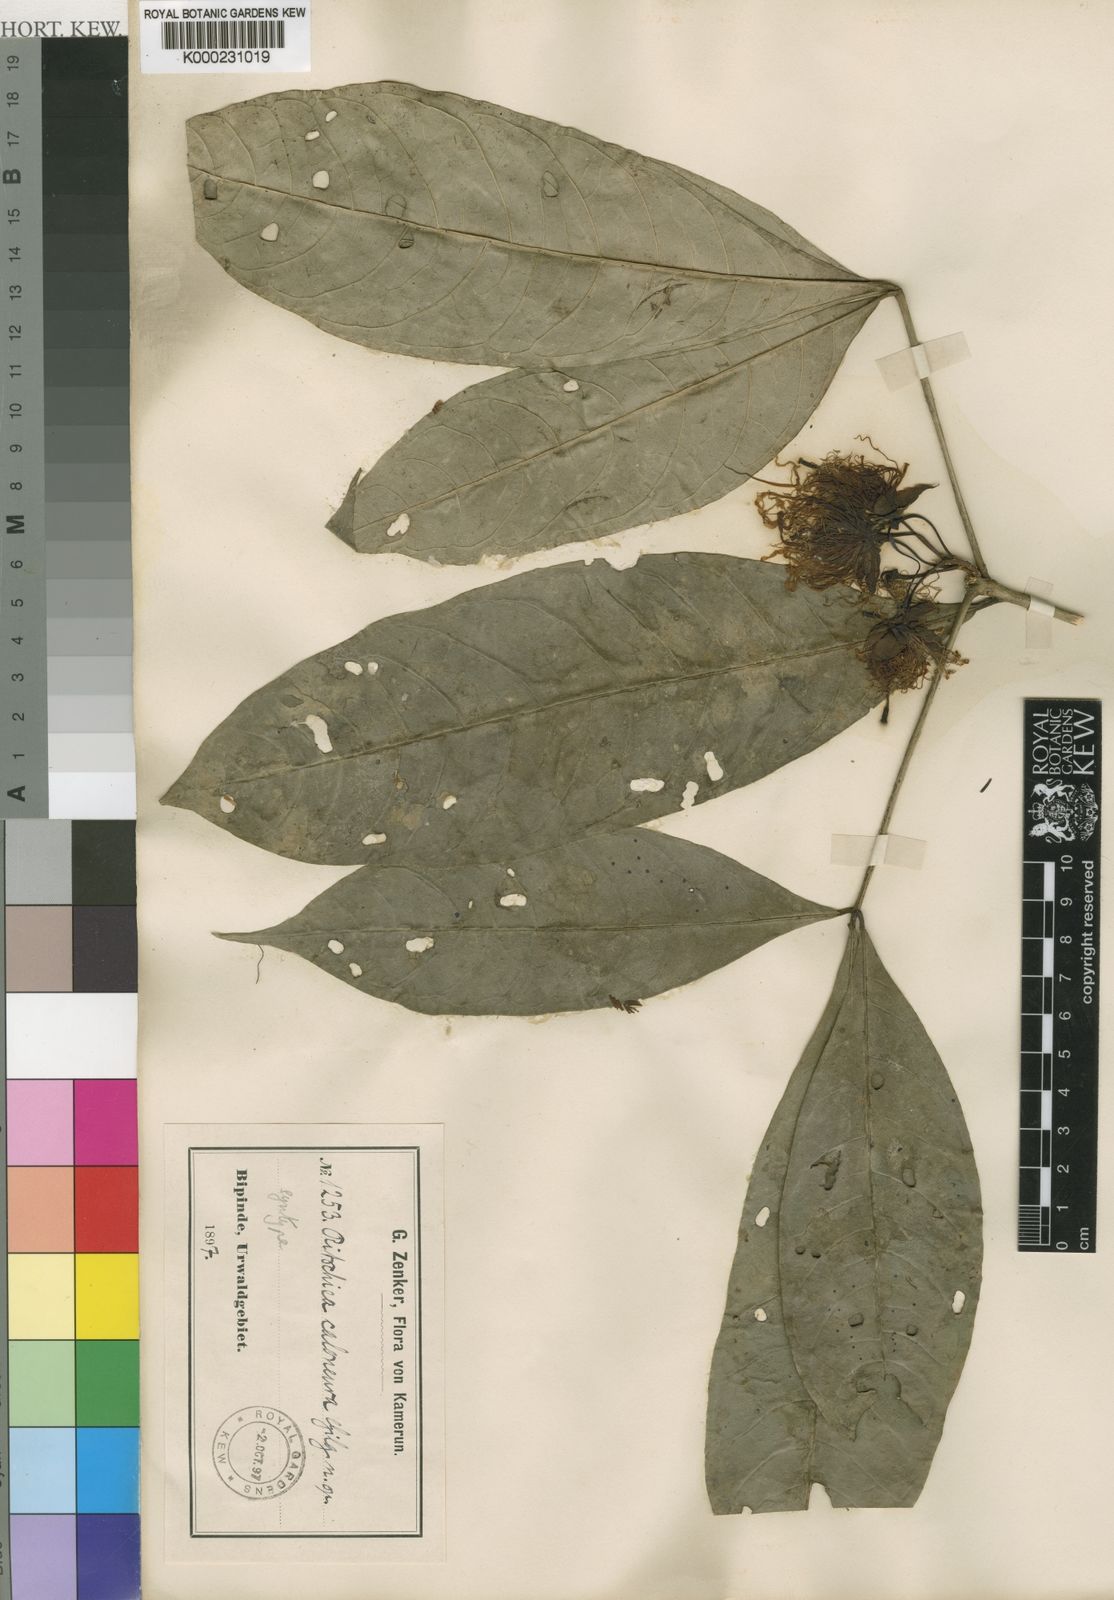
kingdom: Plantae
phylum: Tracheophyta
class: Magnoliopsida
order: Brassicales
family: Capparaceae
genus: Ritchiea
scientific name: Ritchiea simplicifolia
